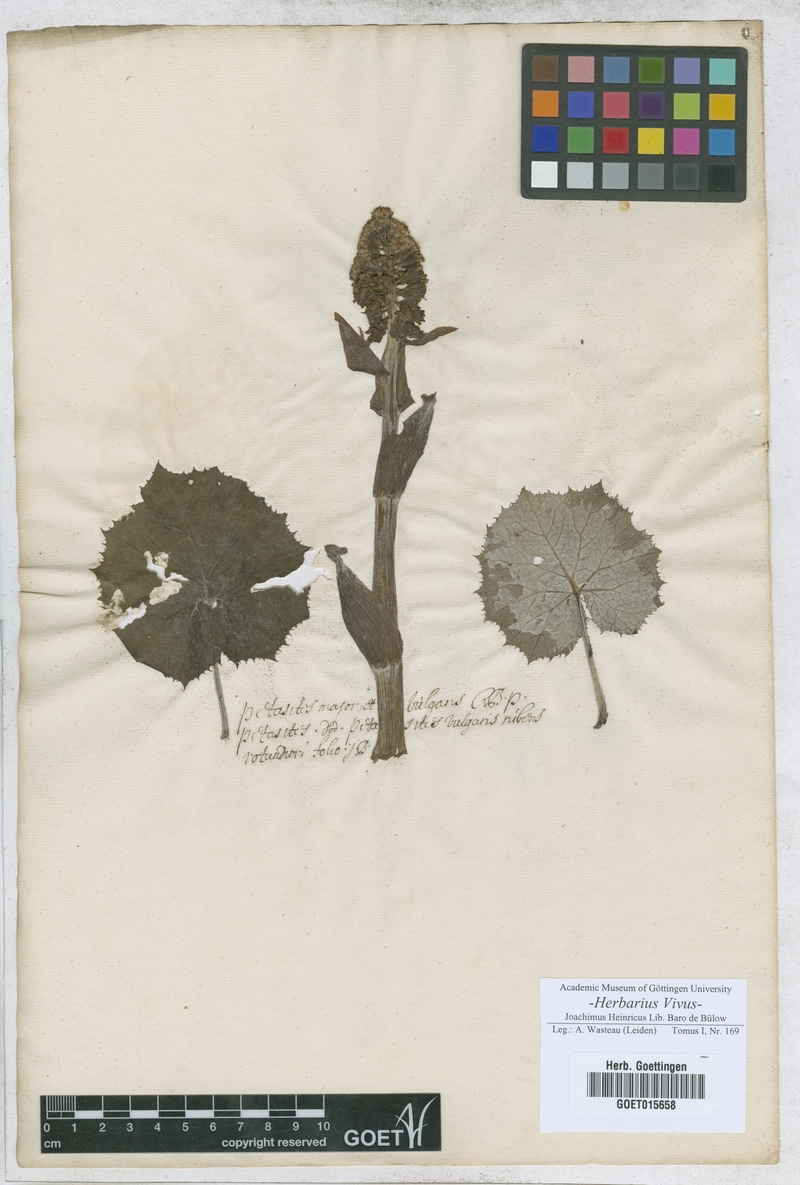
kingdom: Plantae
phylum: Tracheophyta
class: Magnoliopsida
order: Asterales
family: Asteraceae
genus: Petasites
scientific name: Petasites hybridus
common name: Butterbur
